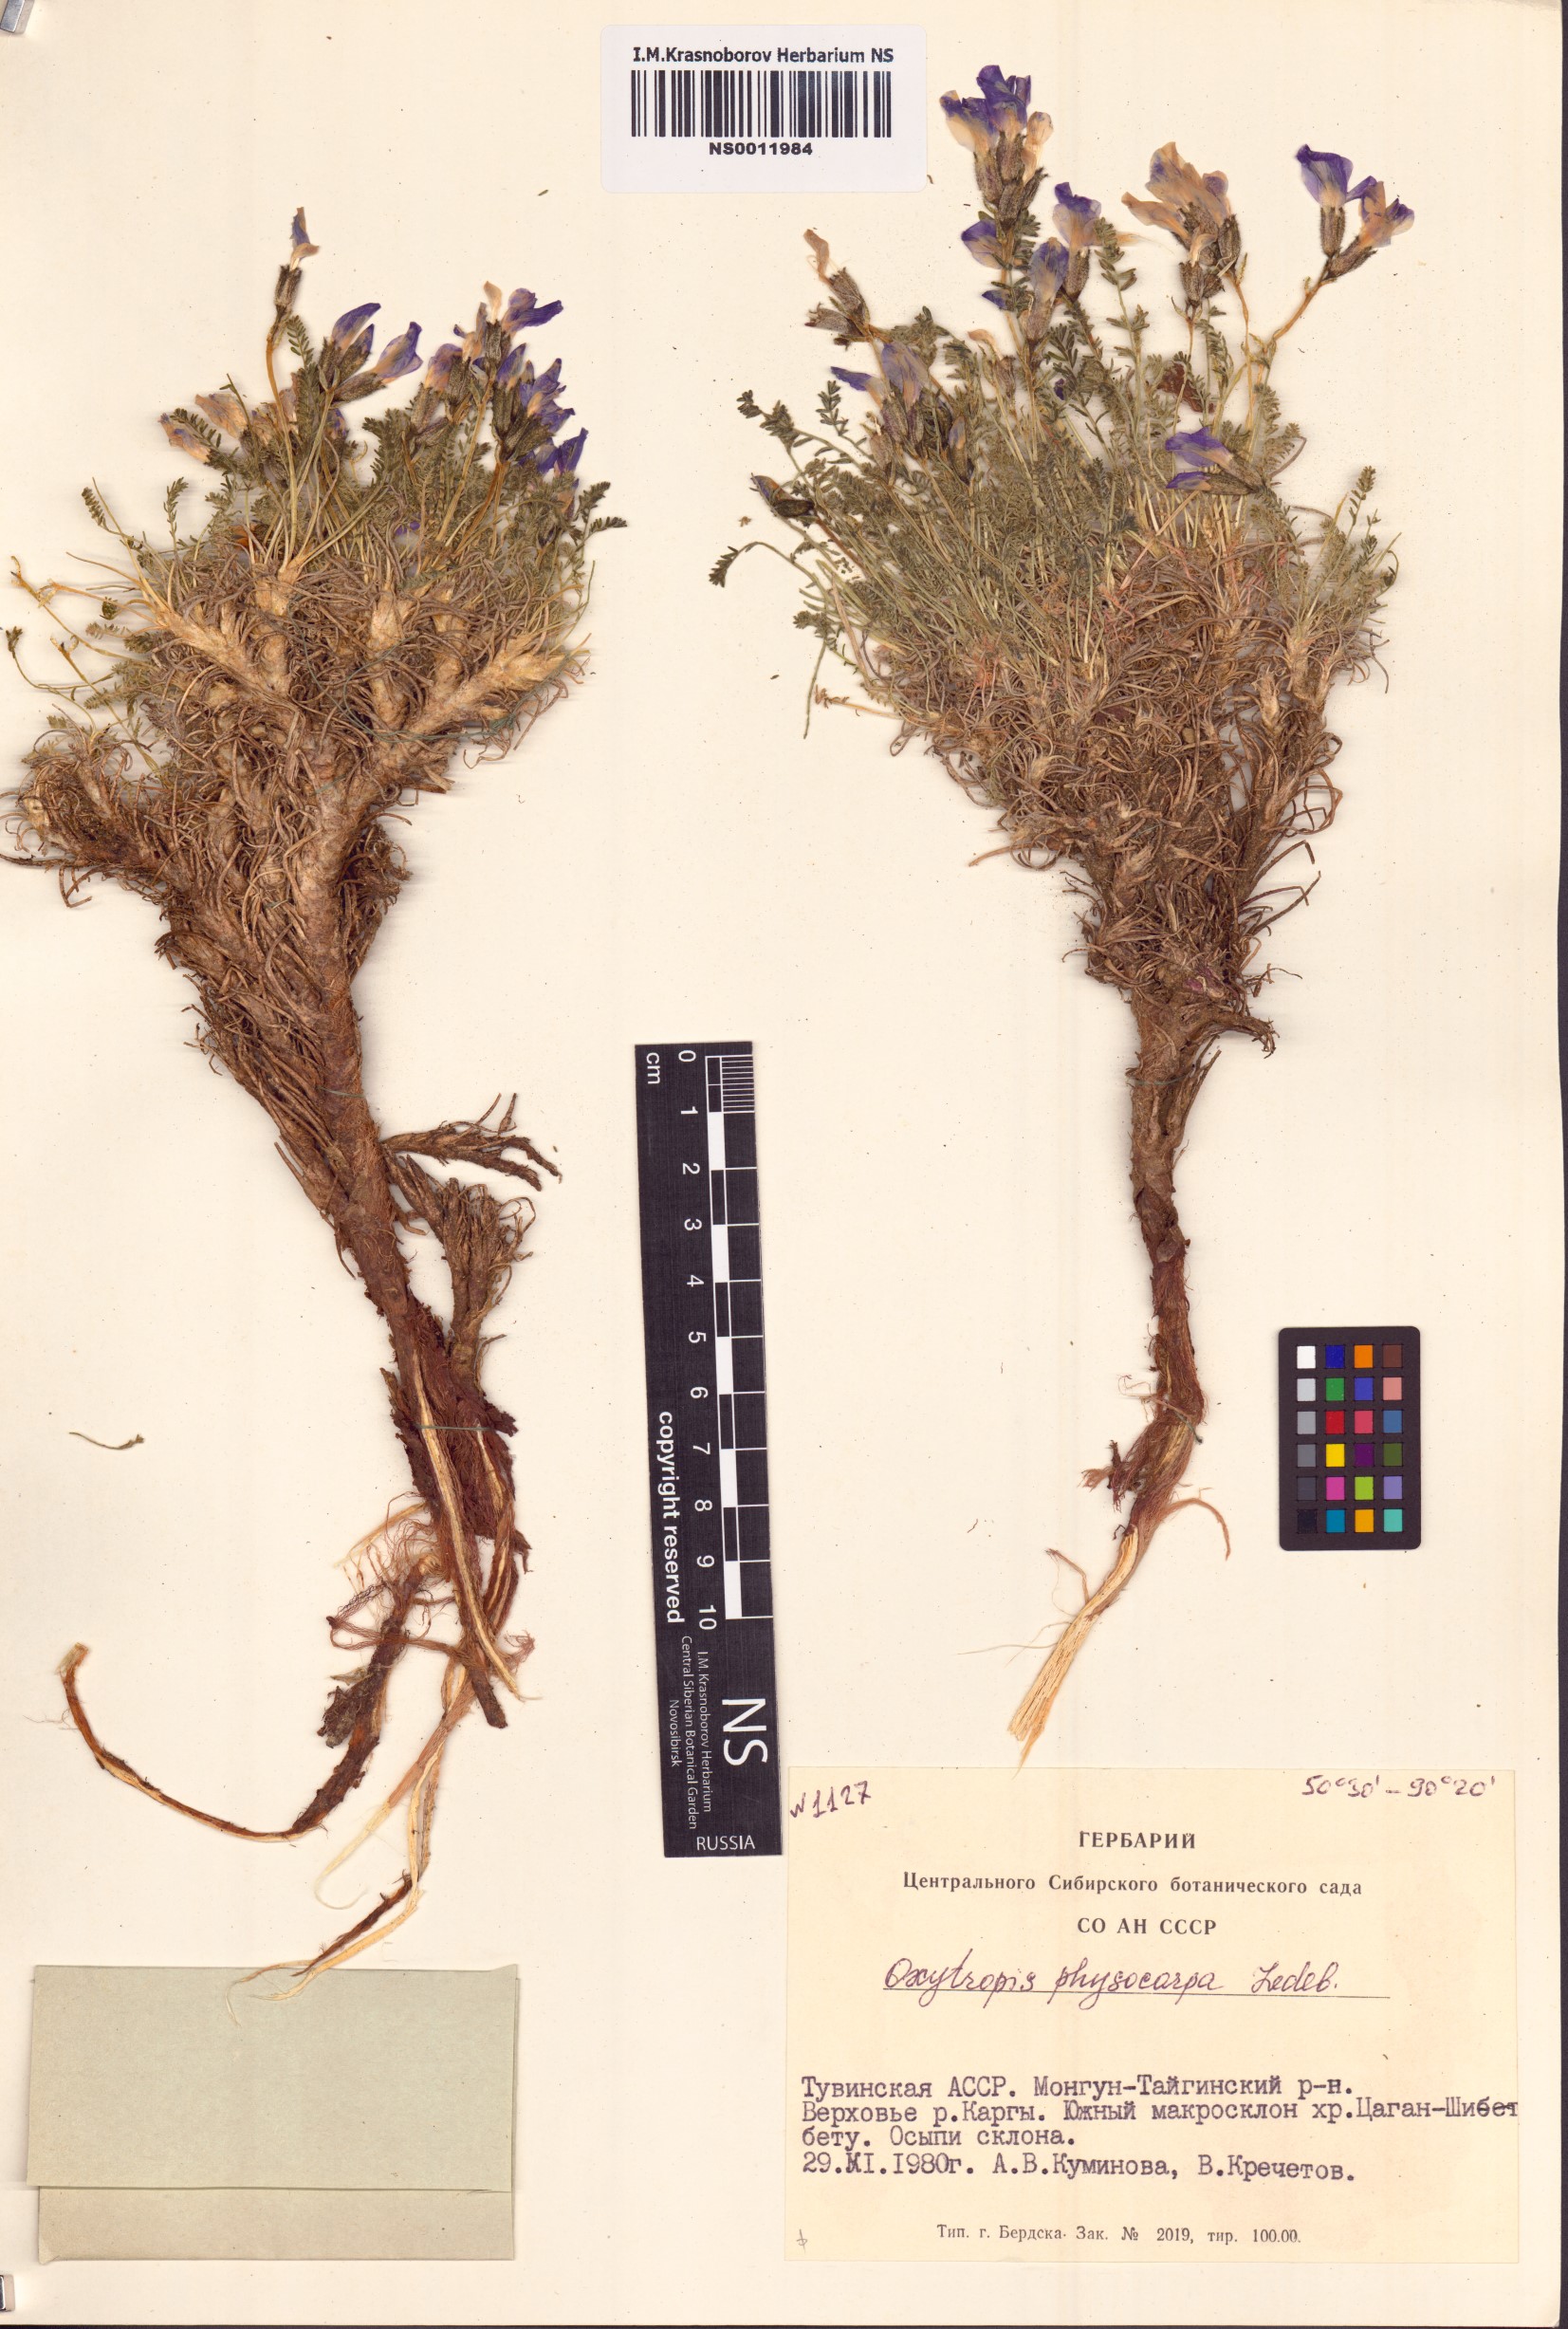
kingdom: Plantae
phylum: Tracheophyta
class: Magnoliopsida
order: Fabales
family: Fabaceae
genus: Oxytropis
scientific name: Oxytropis physocarpa
